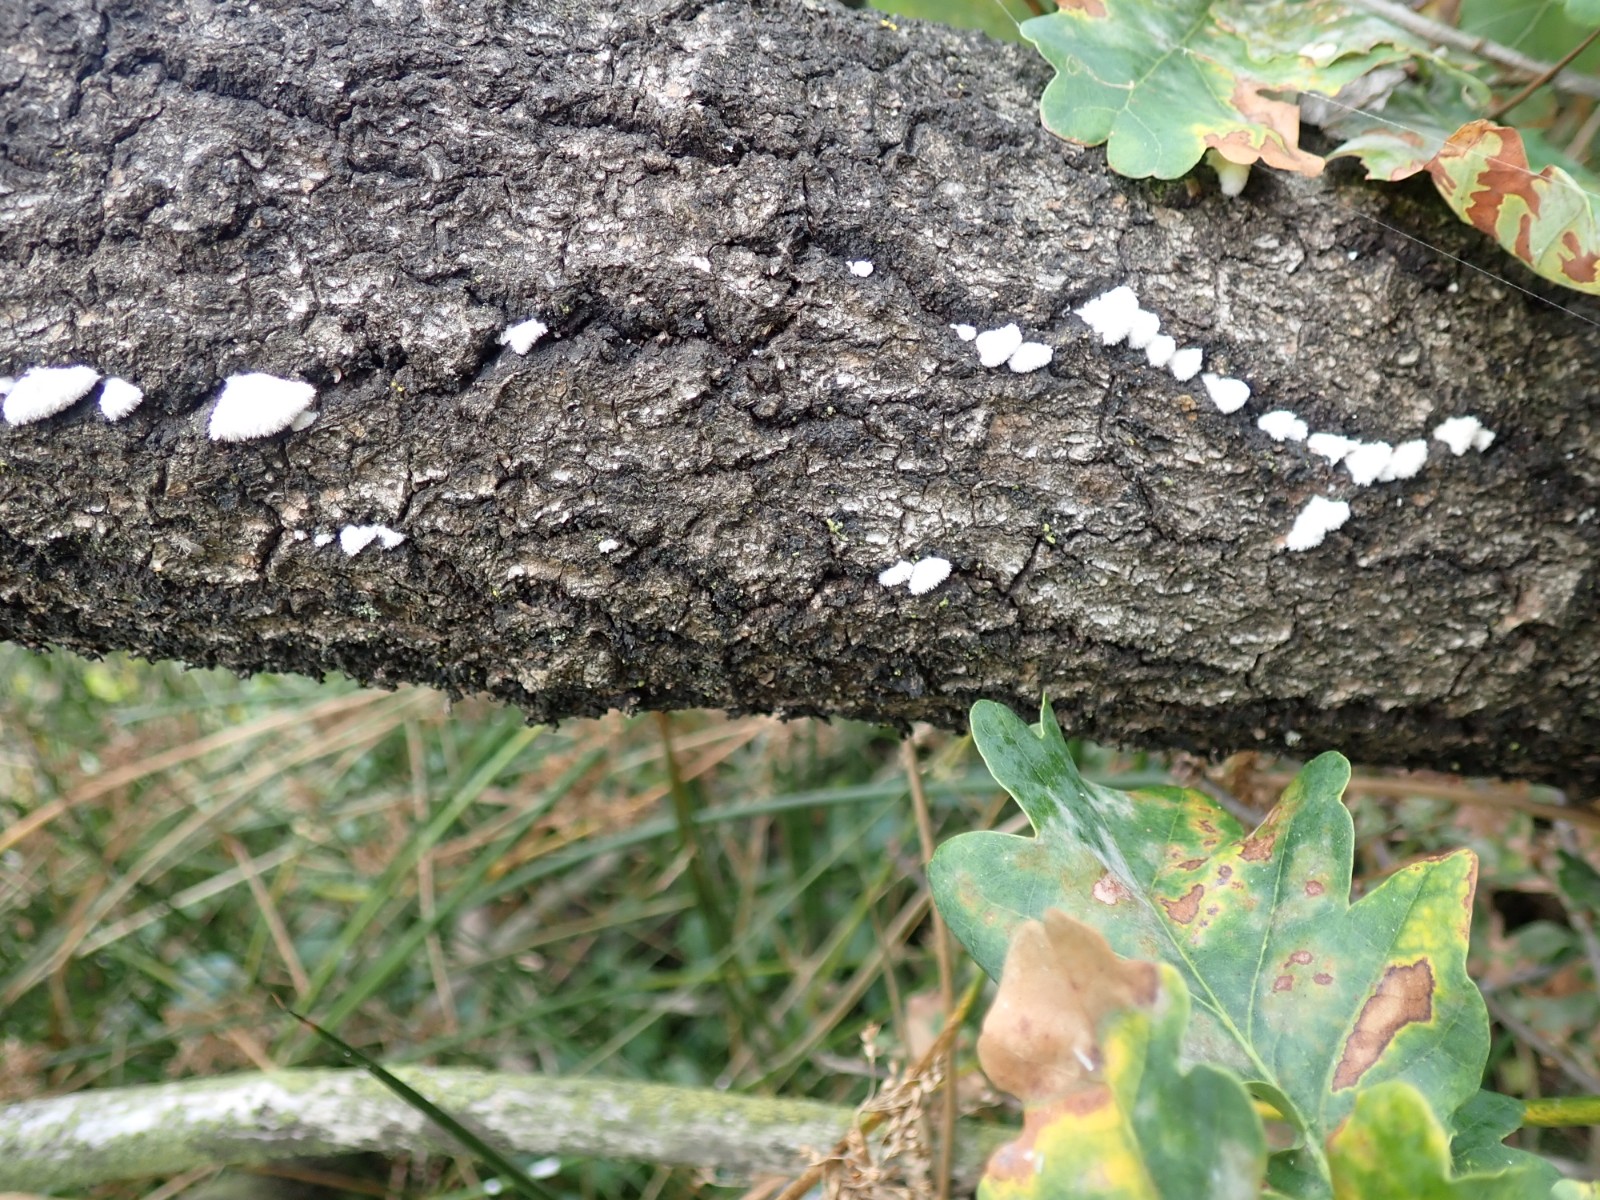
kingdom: Fungi
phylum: Basidiomycota
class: Agaricomycetes
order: Agaricales
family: Schizophyllaceae
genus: Schizophyllum
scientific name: Schizophyllum commune
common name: kløvblad
